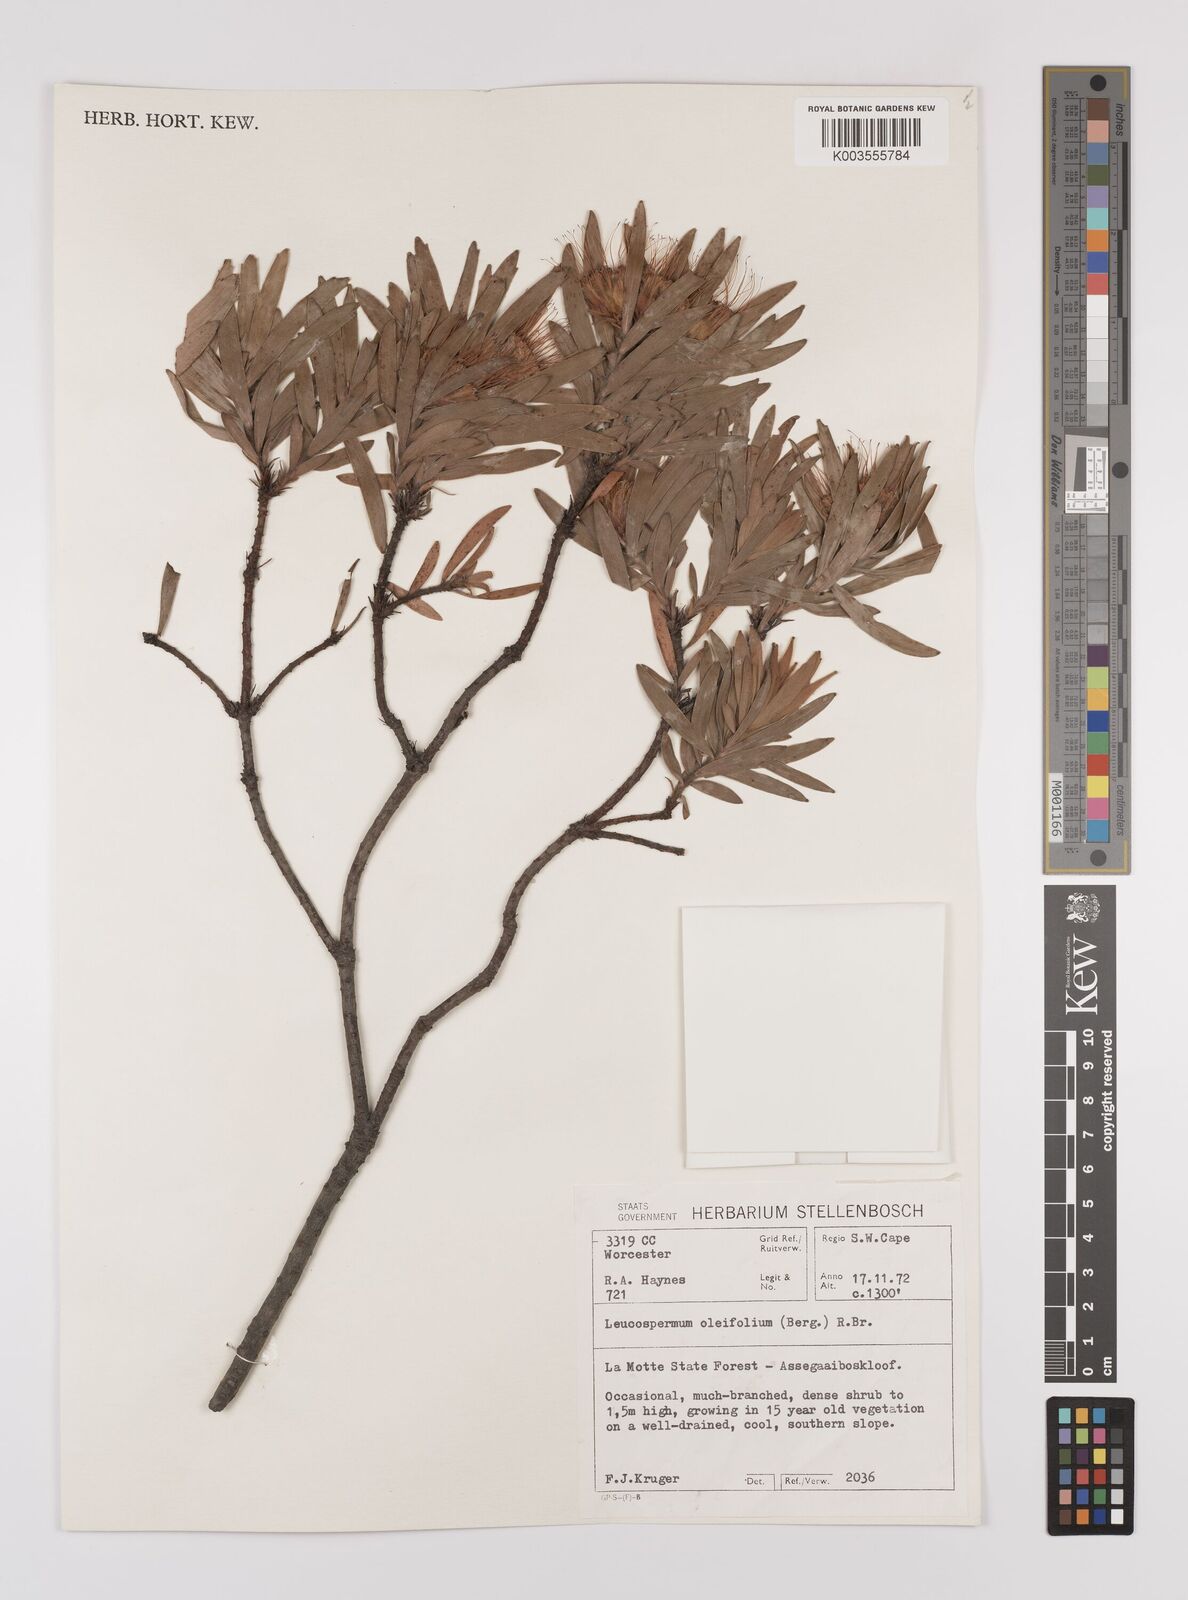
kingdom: Plantae
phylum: Tracheophyta
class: Magnoliopsida
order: Proteales
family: Proteaceae
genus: Leucospermum
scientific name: Leucospermum oleifolium
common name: Matches
